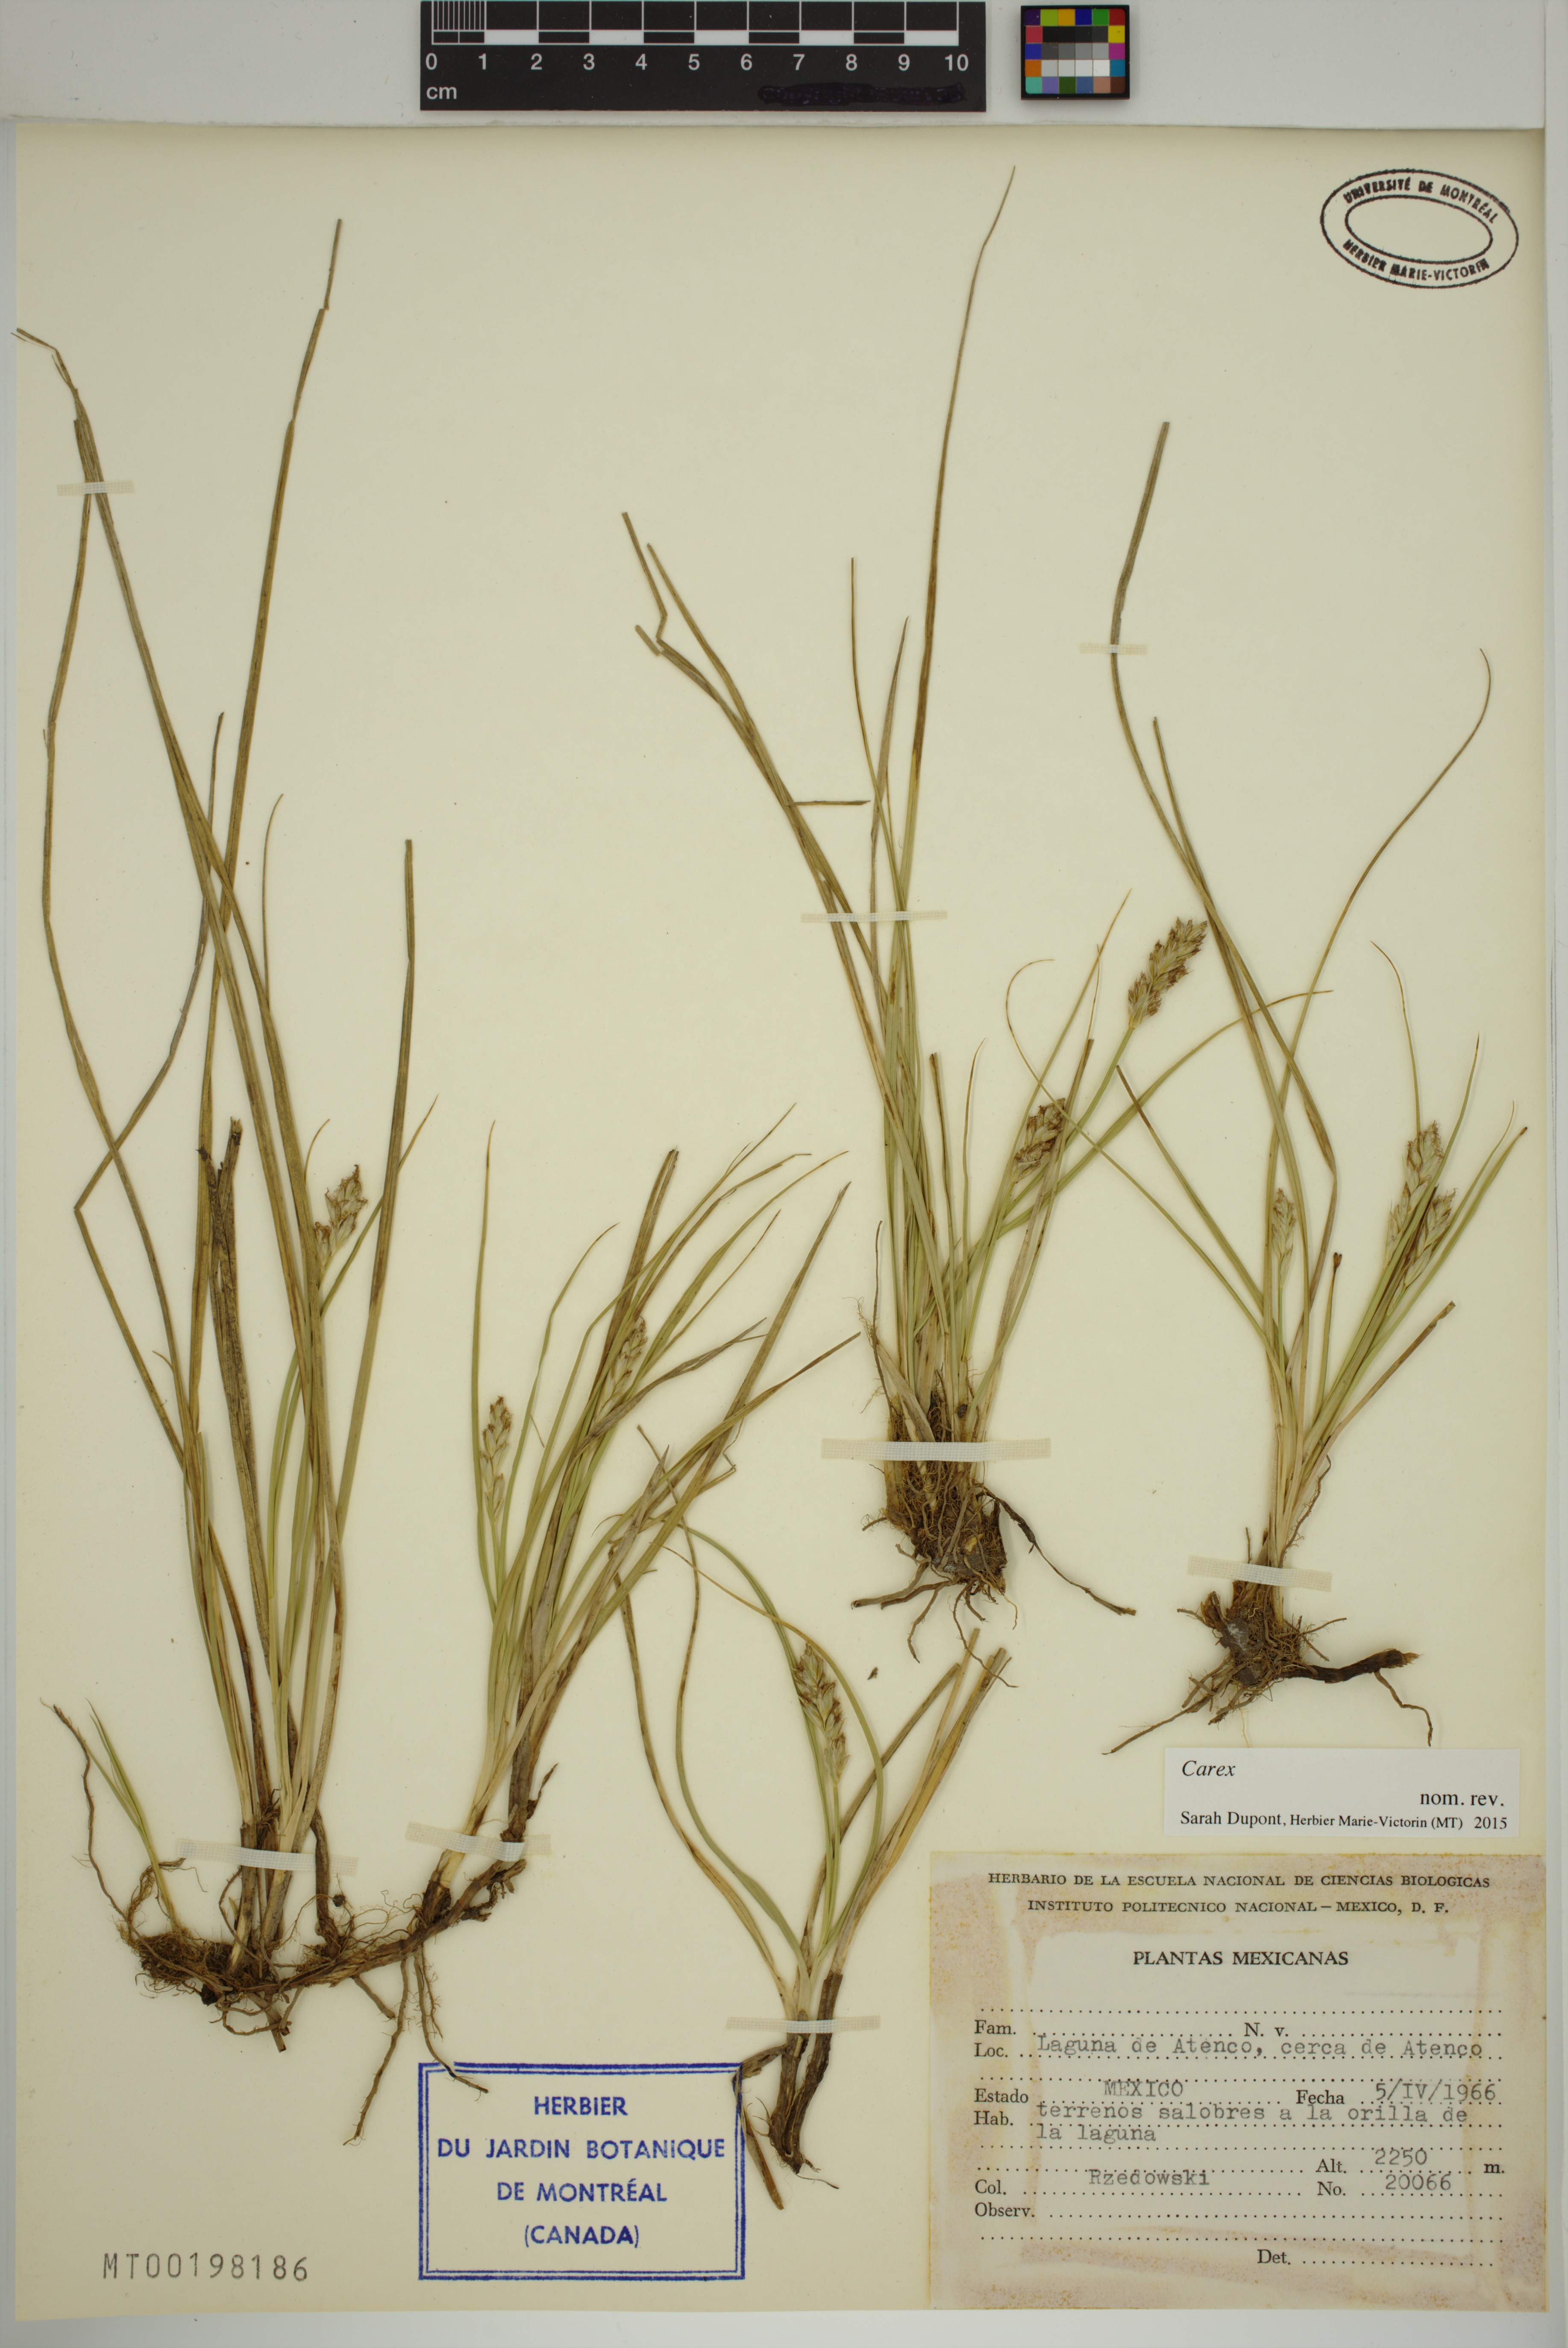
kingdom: Plantae
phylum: Tracheophyta
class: Liliopsida
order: Poales
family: Cyperaceae
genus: Carex
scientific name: Carex
